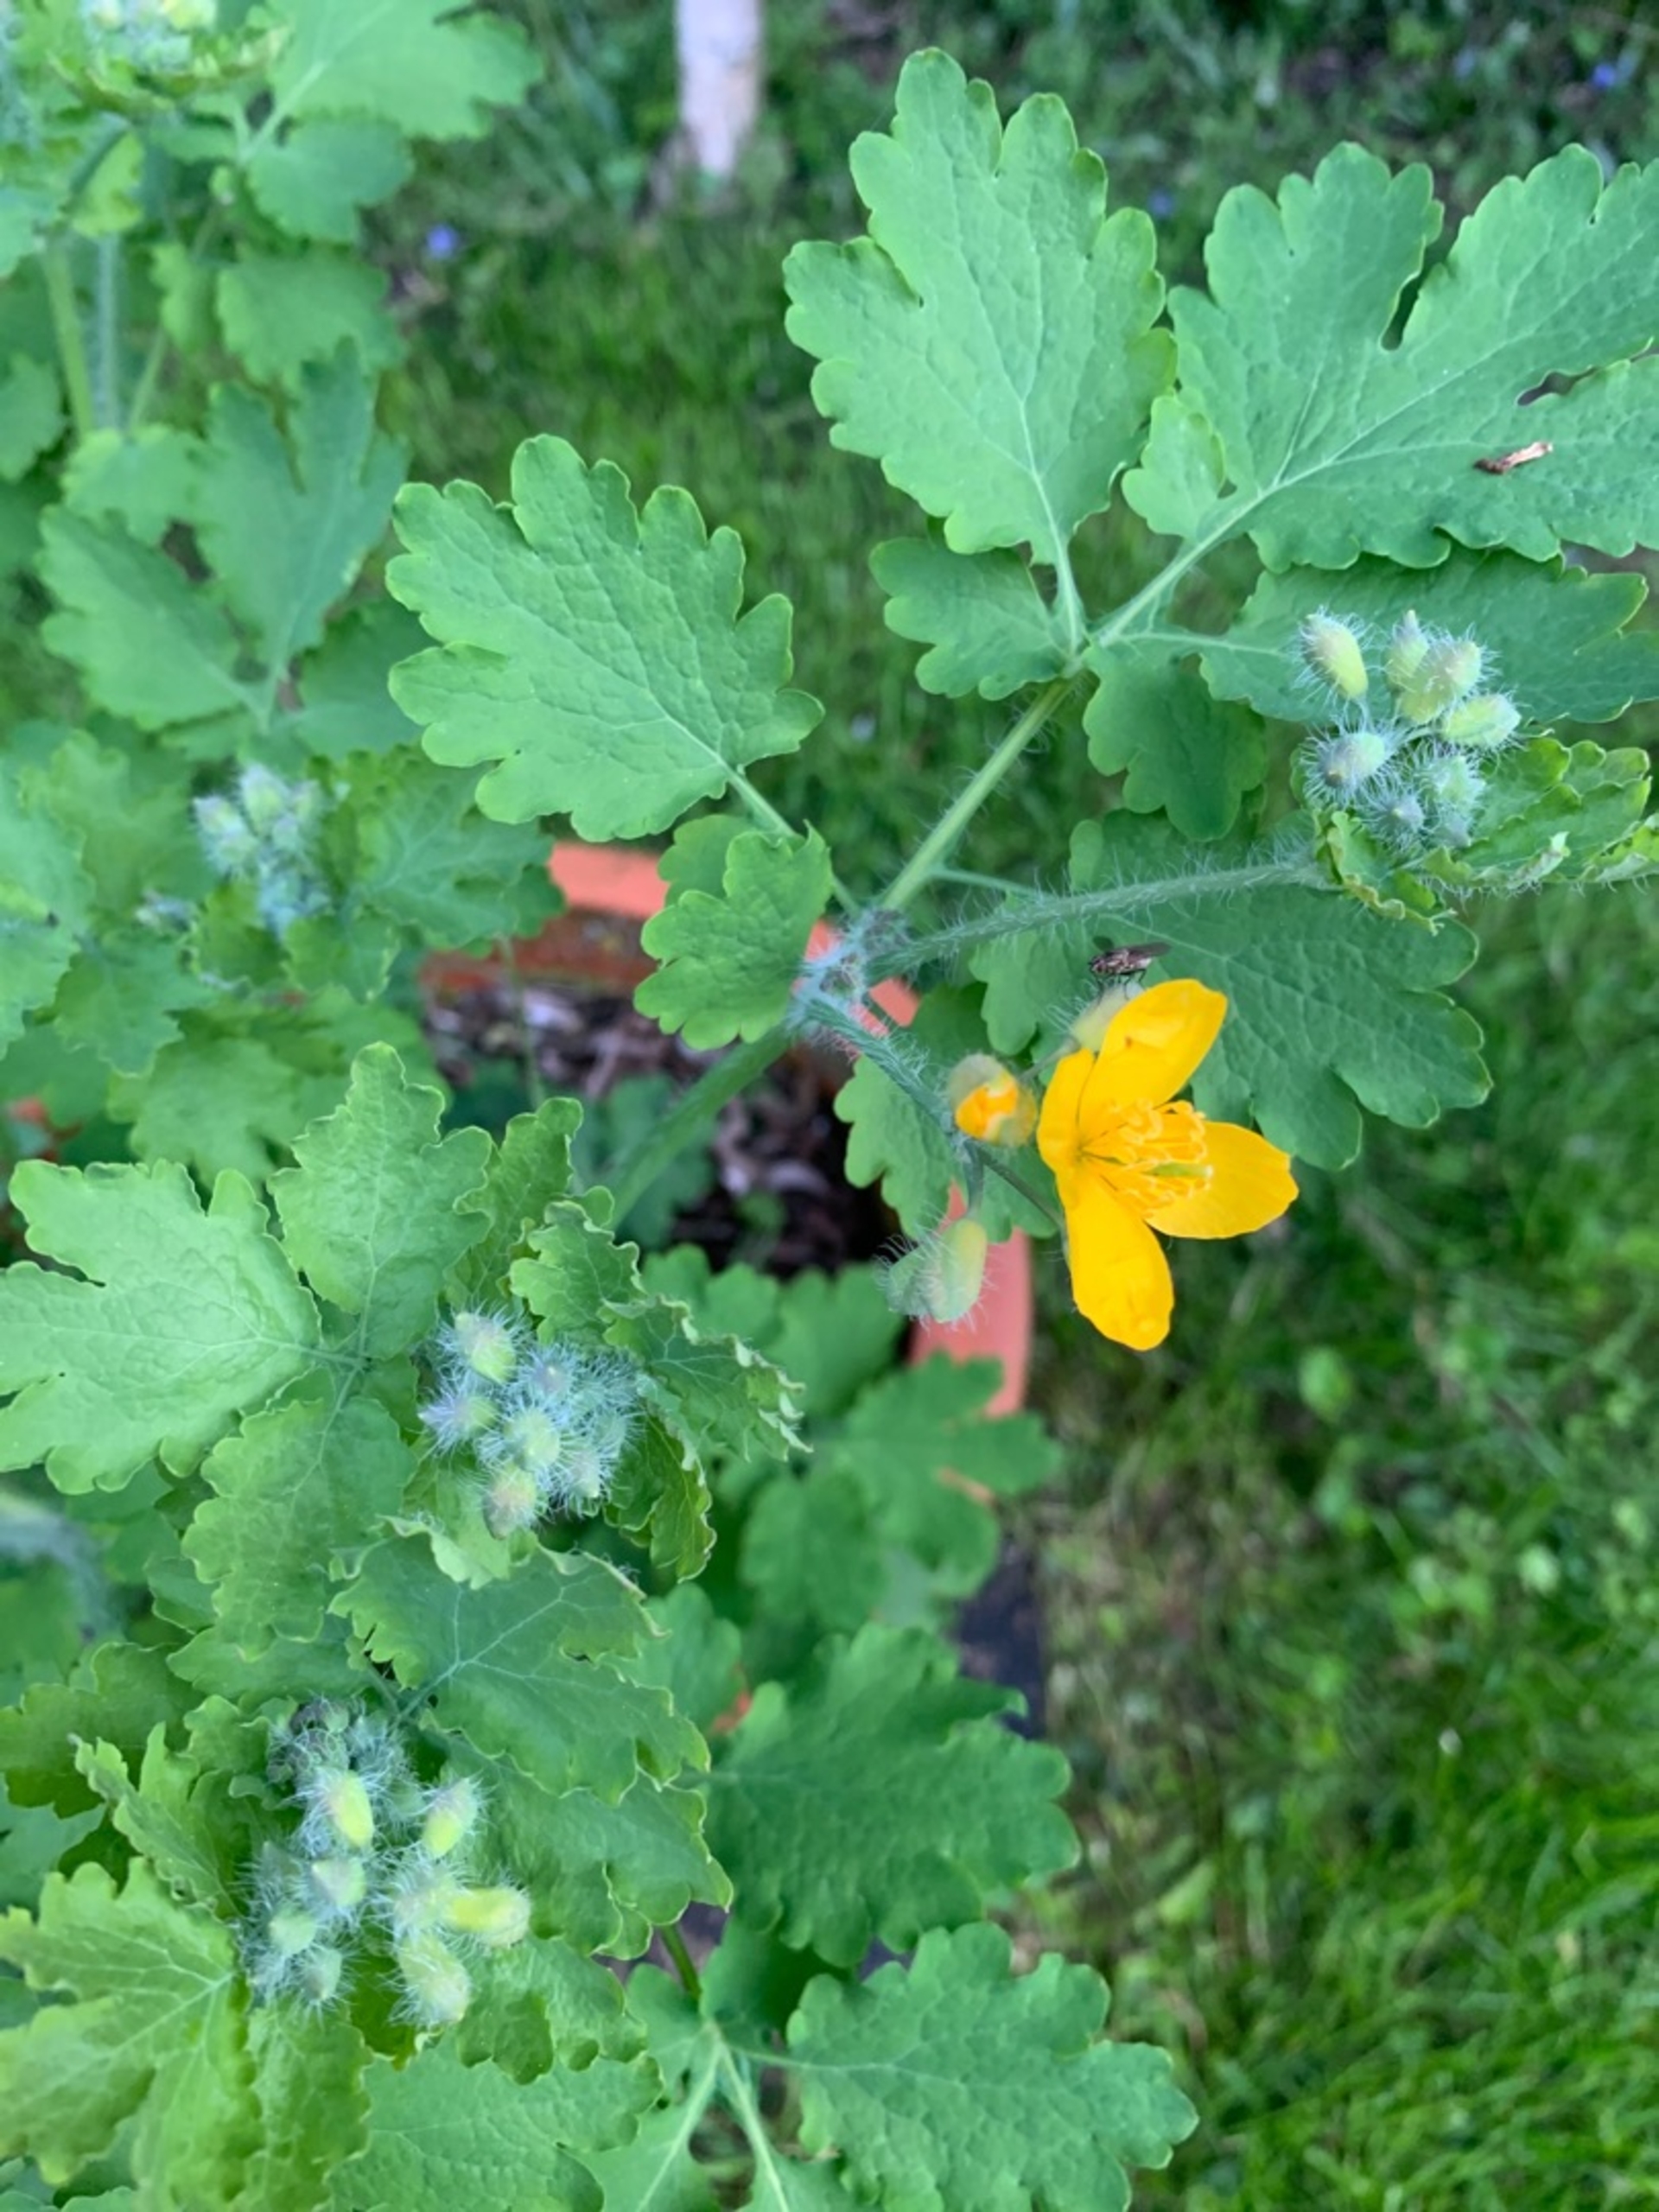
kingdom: Plantae
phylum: Tracheophyta
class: Magnoliopsida
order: Ranunculales
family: Papaveraceae
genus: Chelidonium
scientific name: Chelidonium majus
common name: Svaleurt
